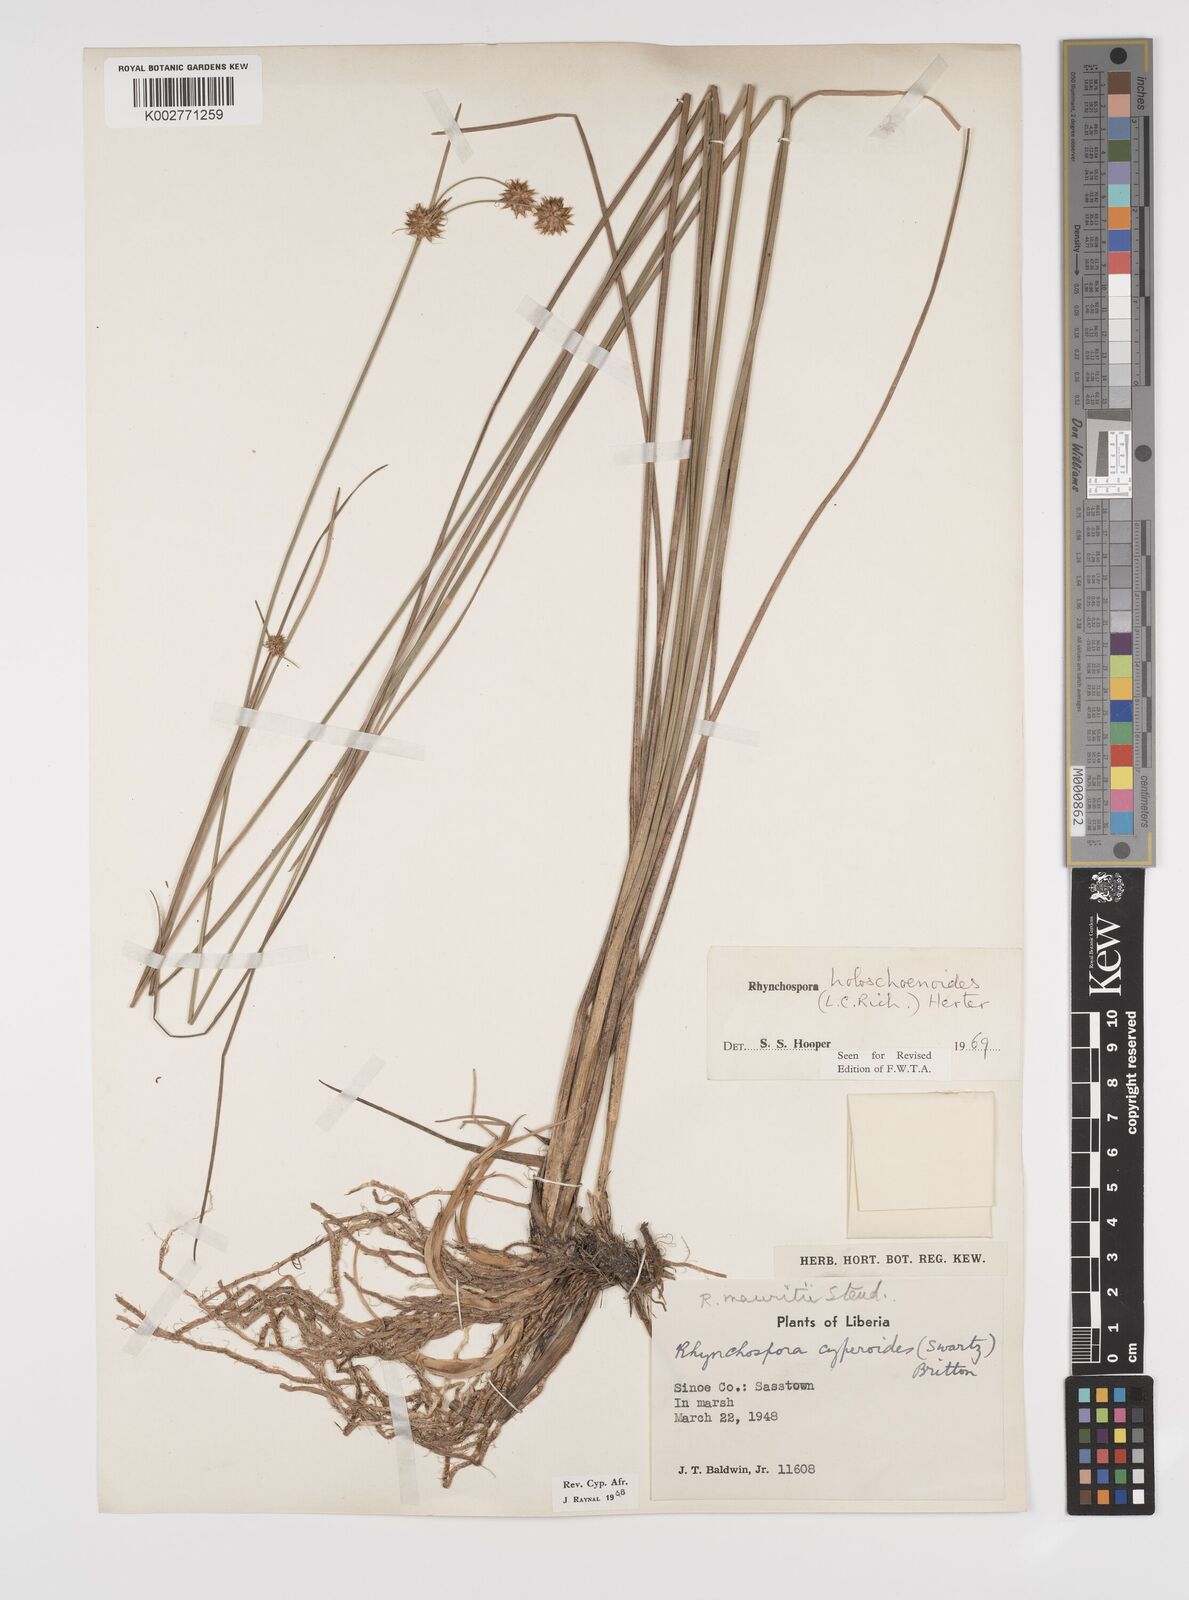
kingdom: Plantae
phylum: Tracheophyta
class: Liliopsida
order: Poales
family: Cyperaceae
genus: Rhynchospora
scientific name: Rhynchospora holoschoenoides
